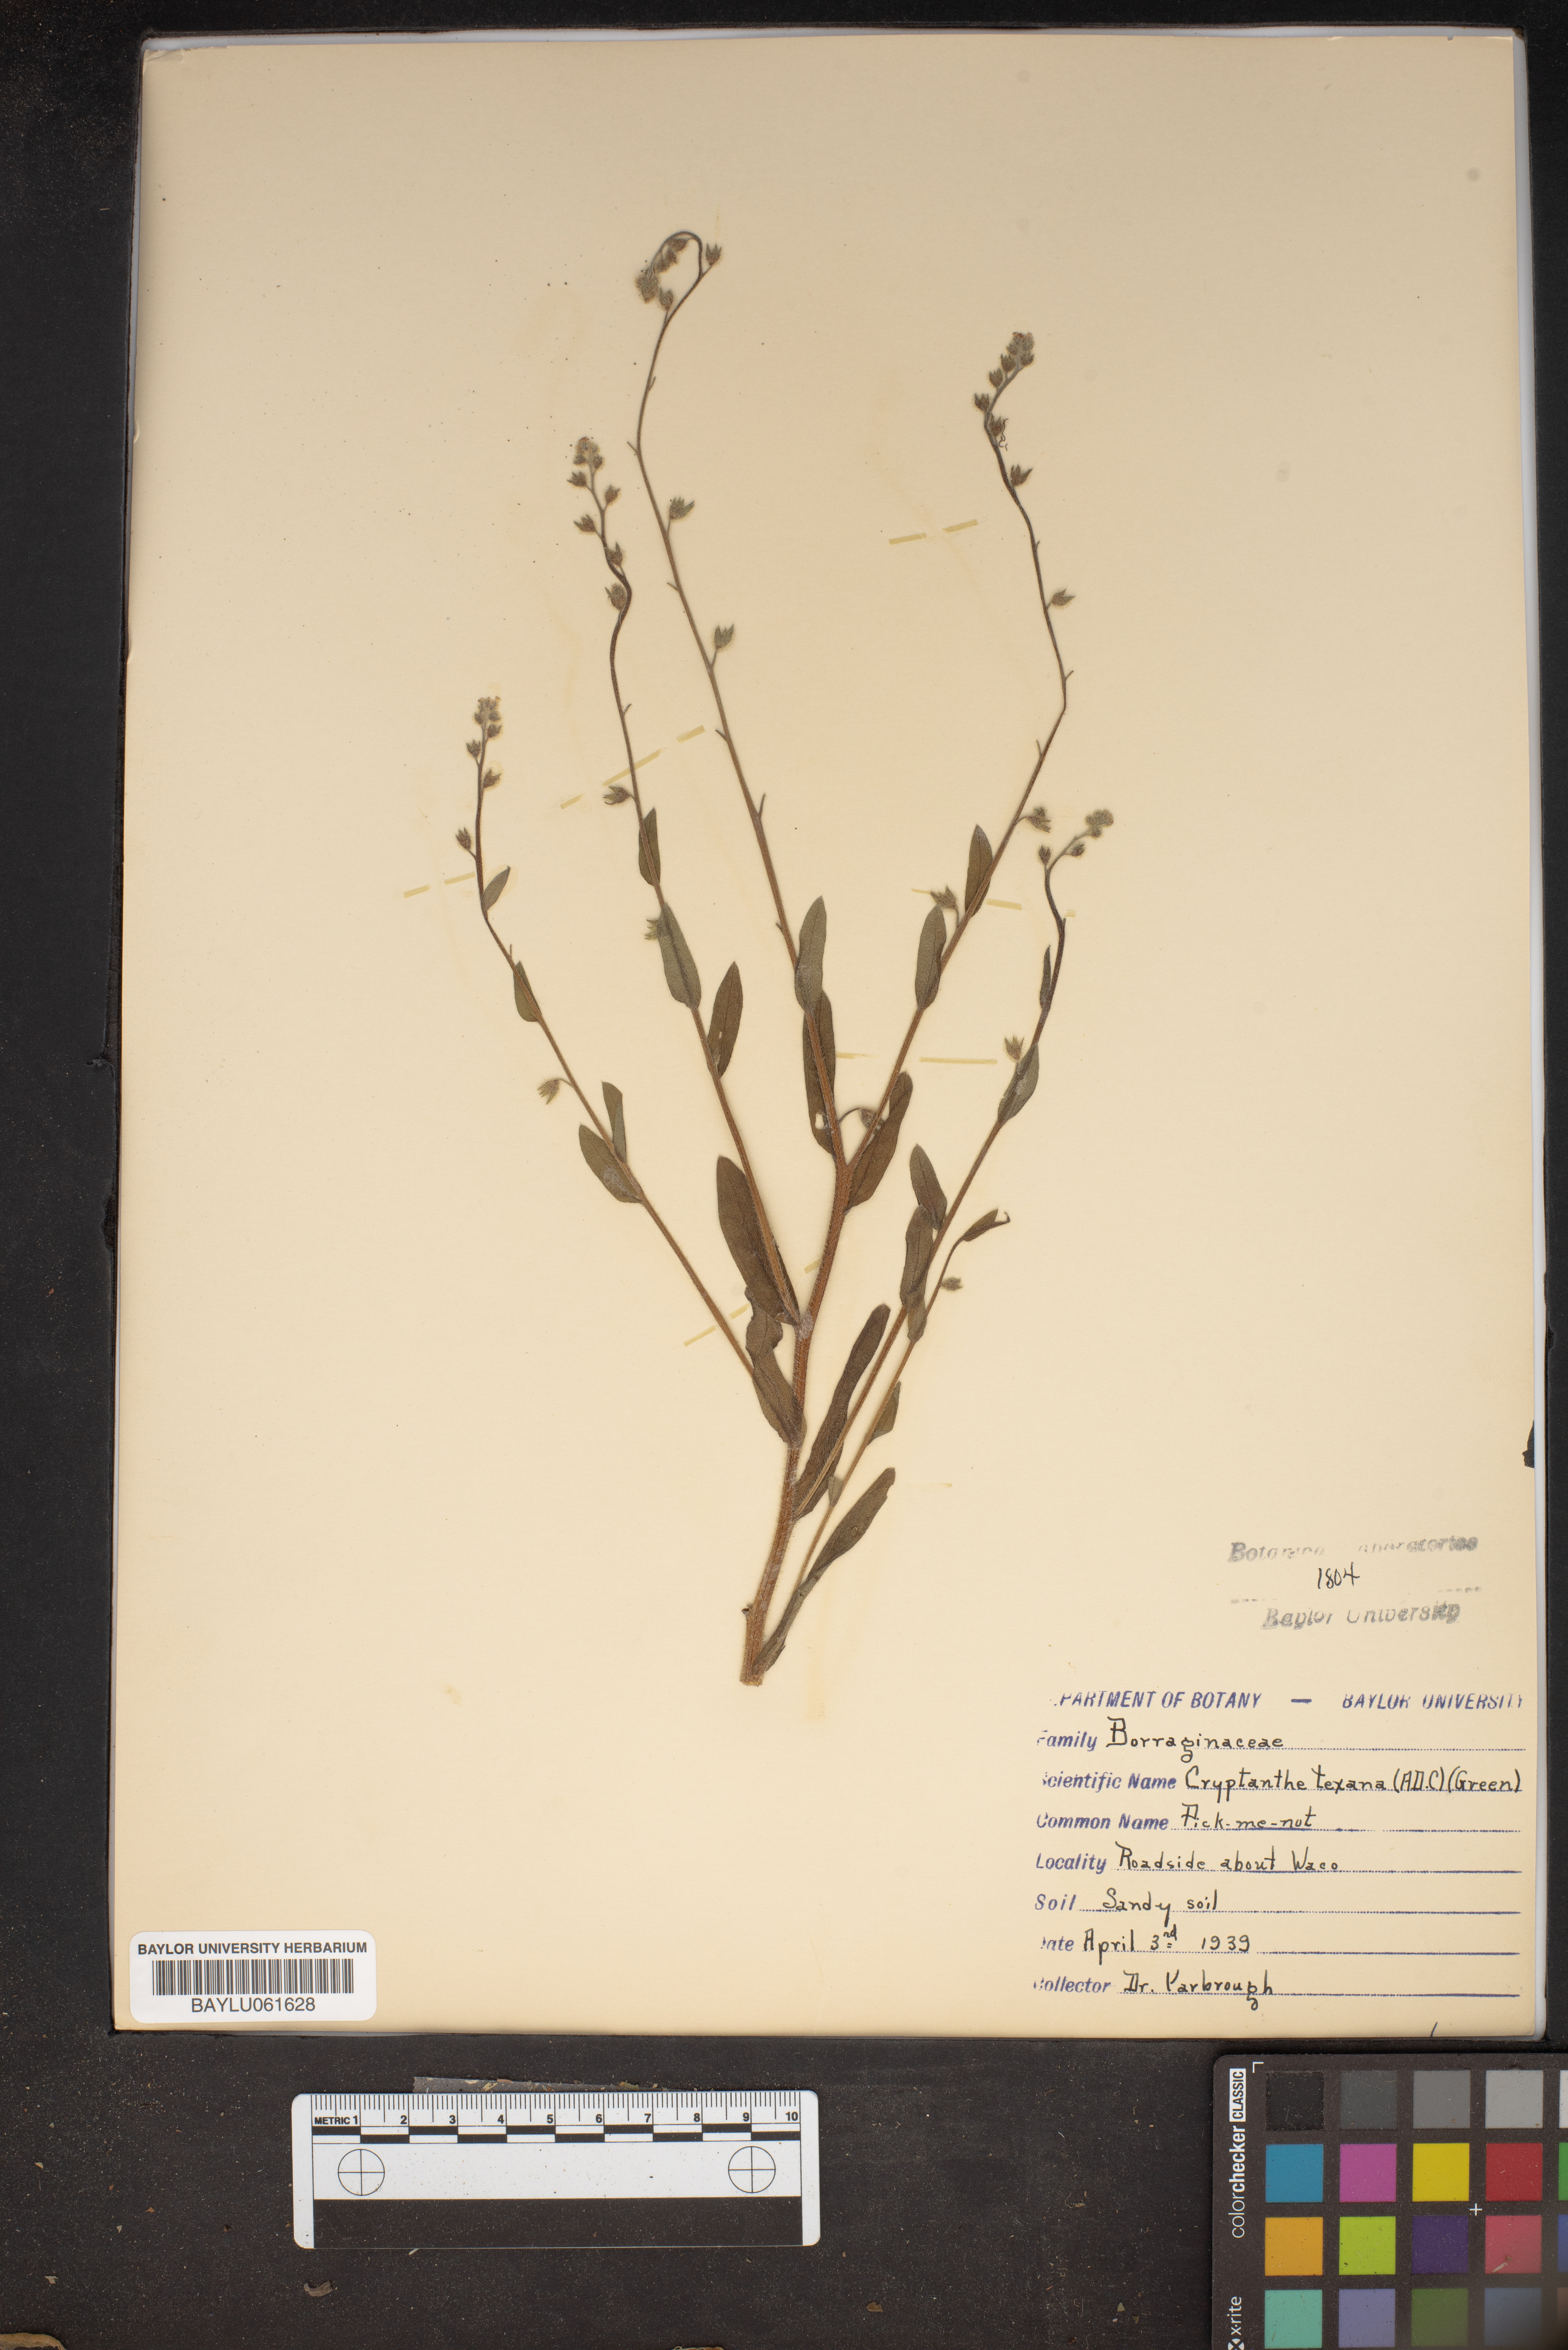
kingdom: Plantae
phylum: Tracheophyta
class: Magnoliopsida
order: Boraginales
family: Boraginaceae
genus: Cryptantha
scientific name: Cryptantha texana
